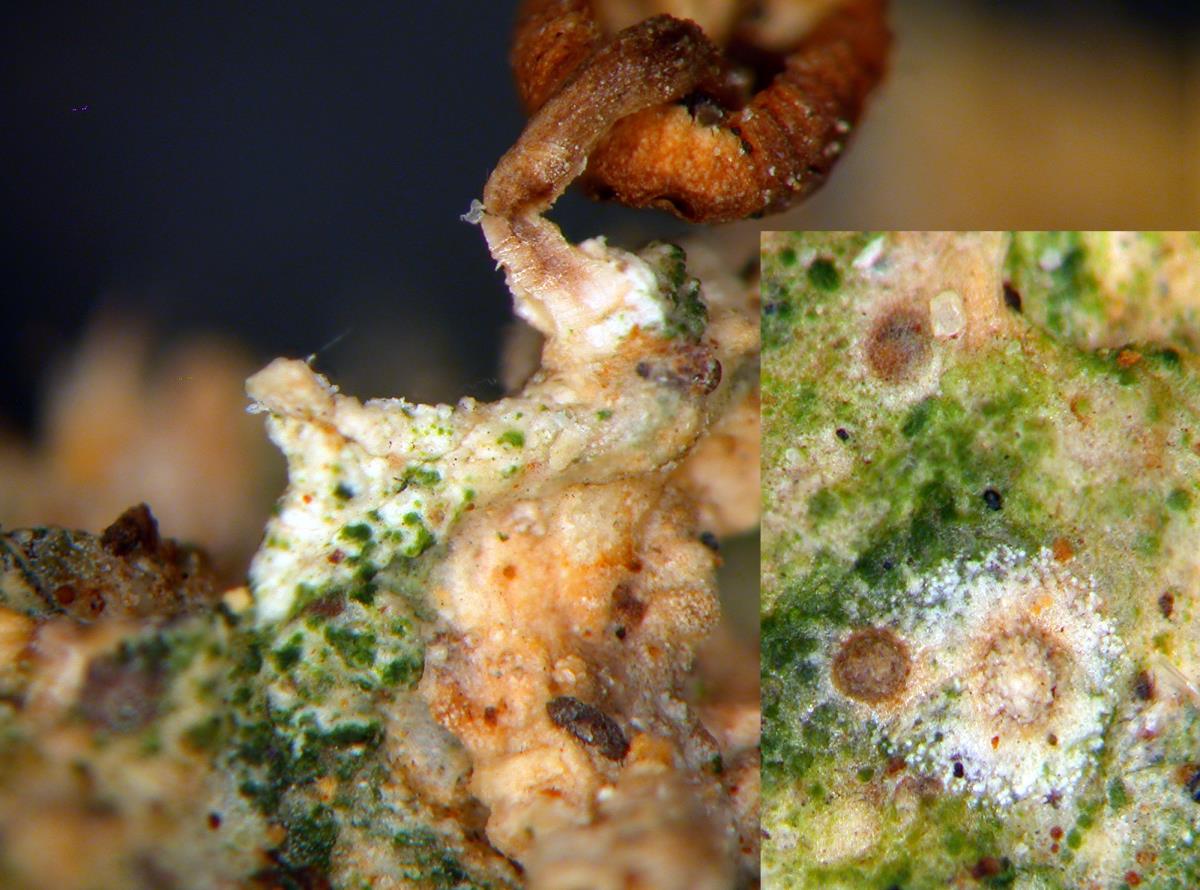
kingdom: Fungi
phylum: Basidiomycota
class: Agaricomycetes
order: Agaricales
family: Omphalotaceae
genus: Gymnopus
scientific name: Gymnopus hakaroa
